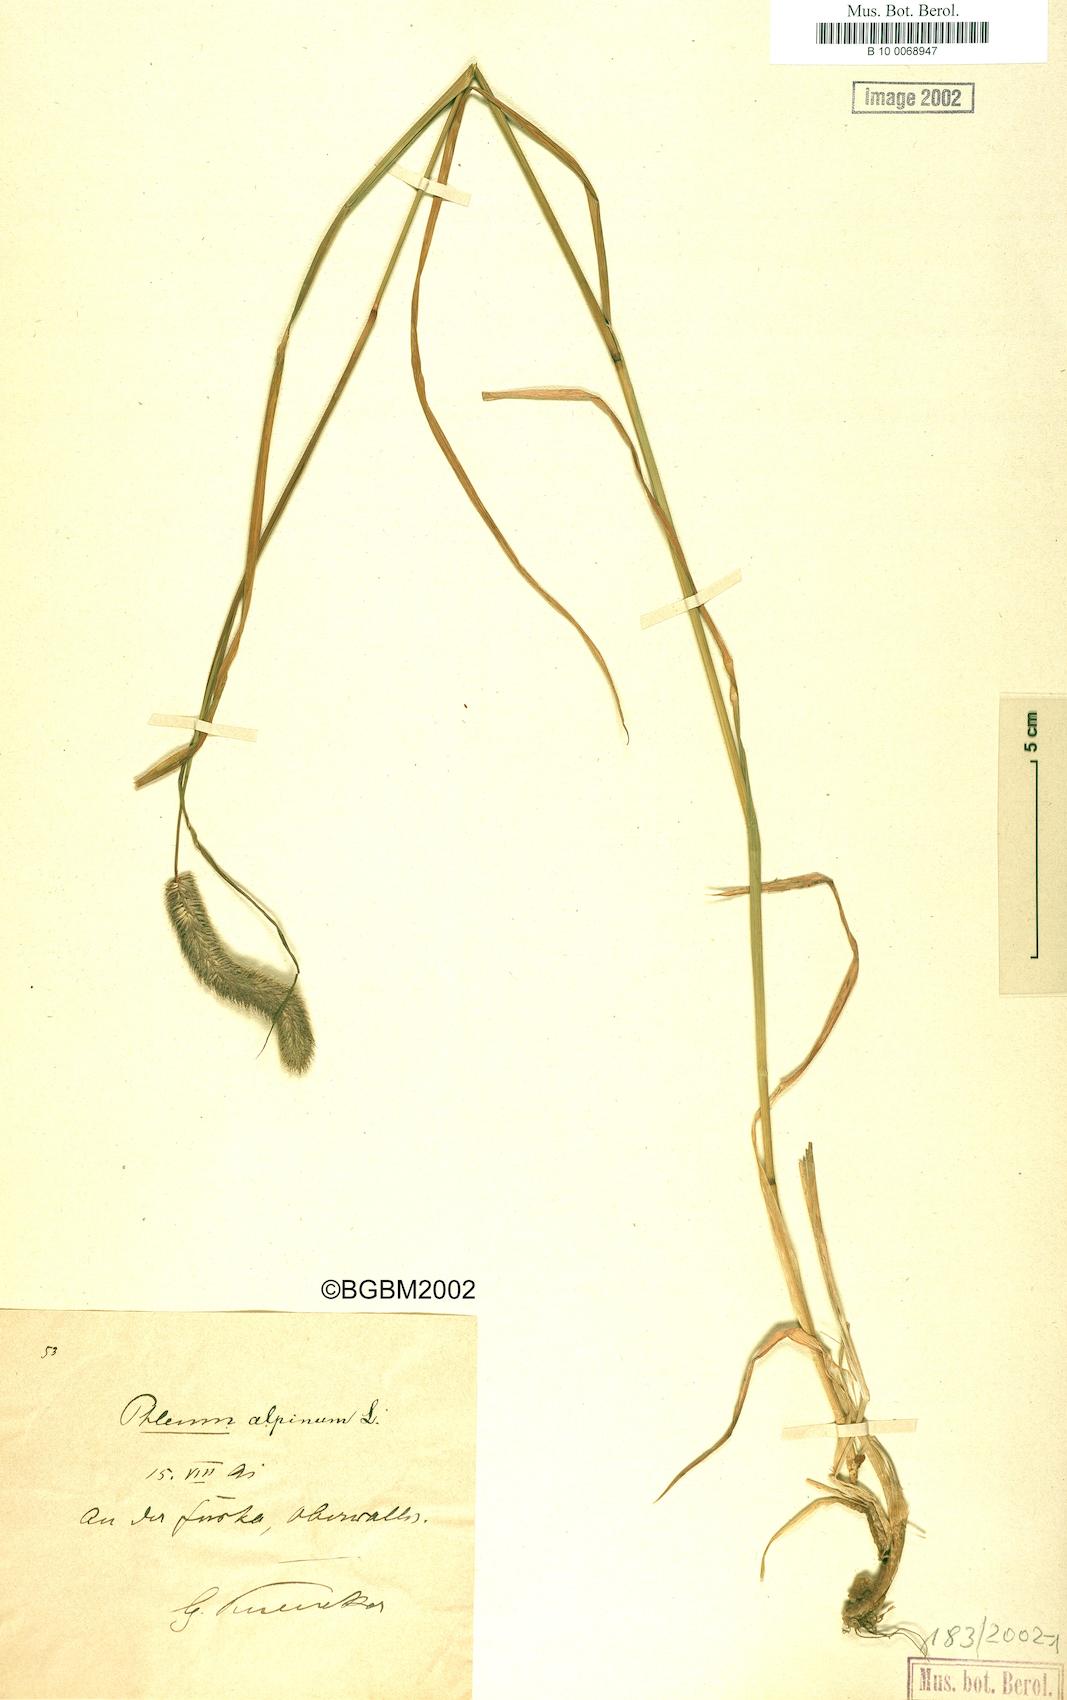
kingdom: Plantae
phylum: Tracheophyta
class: Liliopsida
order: Poales
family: Poaceae
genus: Phleum
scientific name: Phleum alpinum
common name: Alpine cat's-tail
